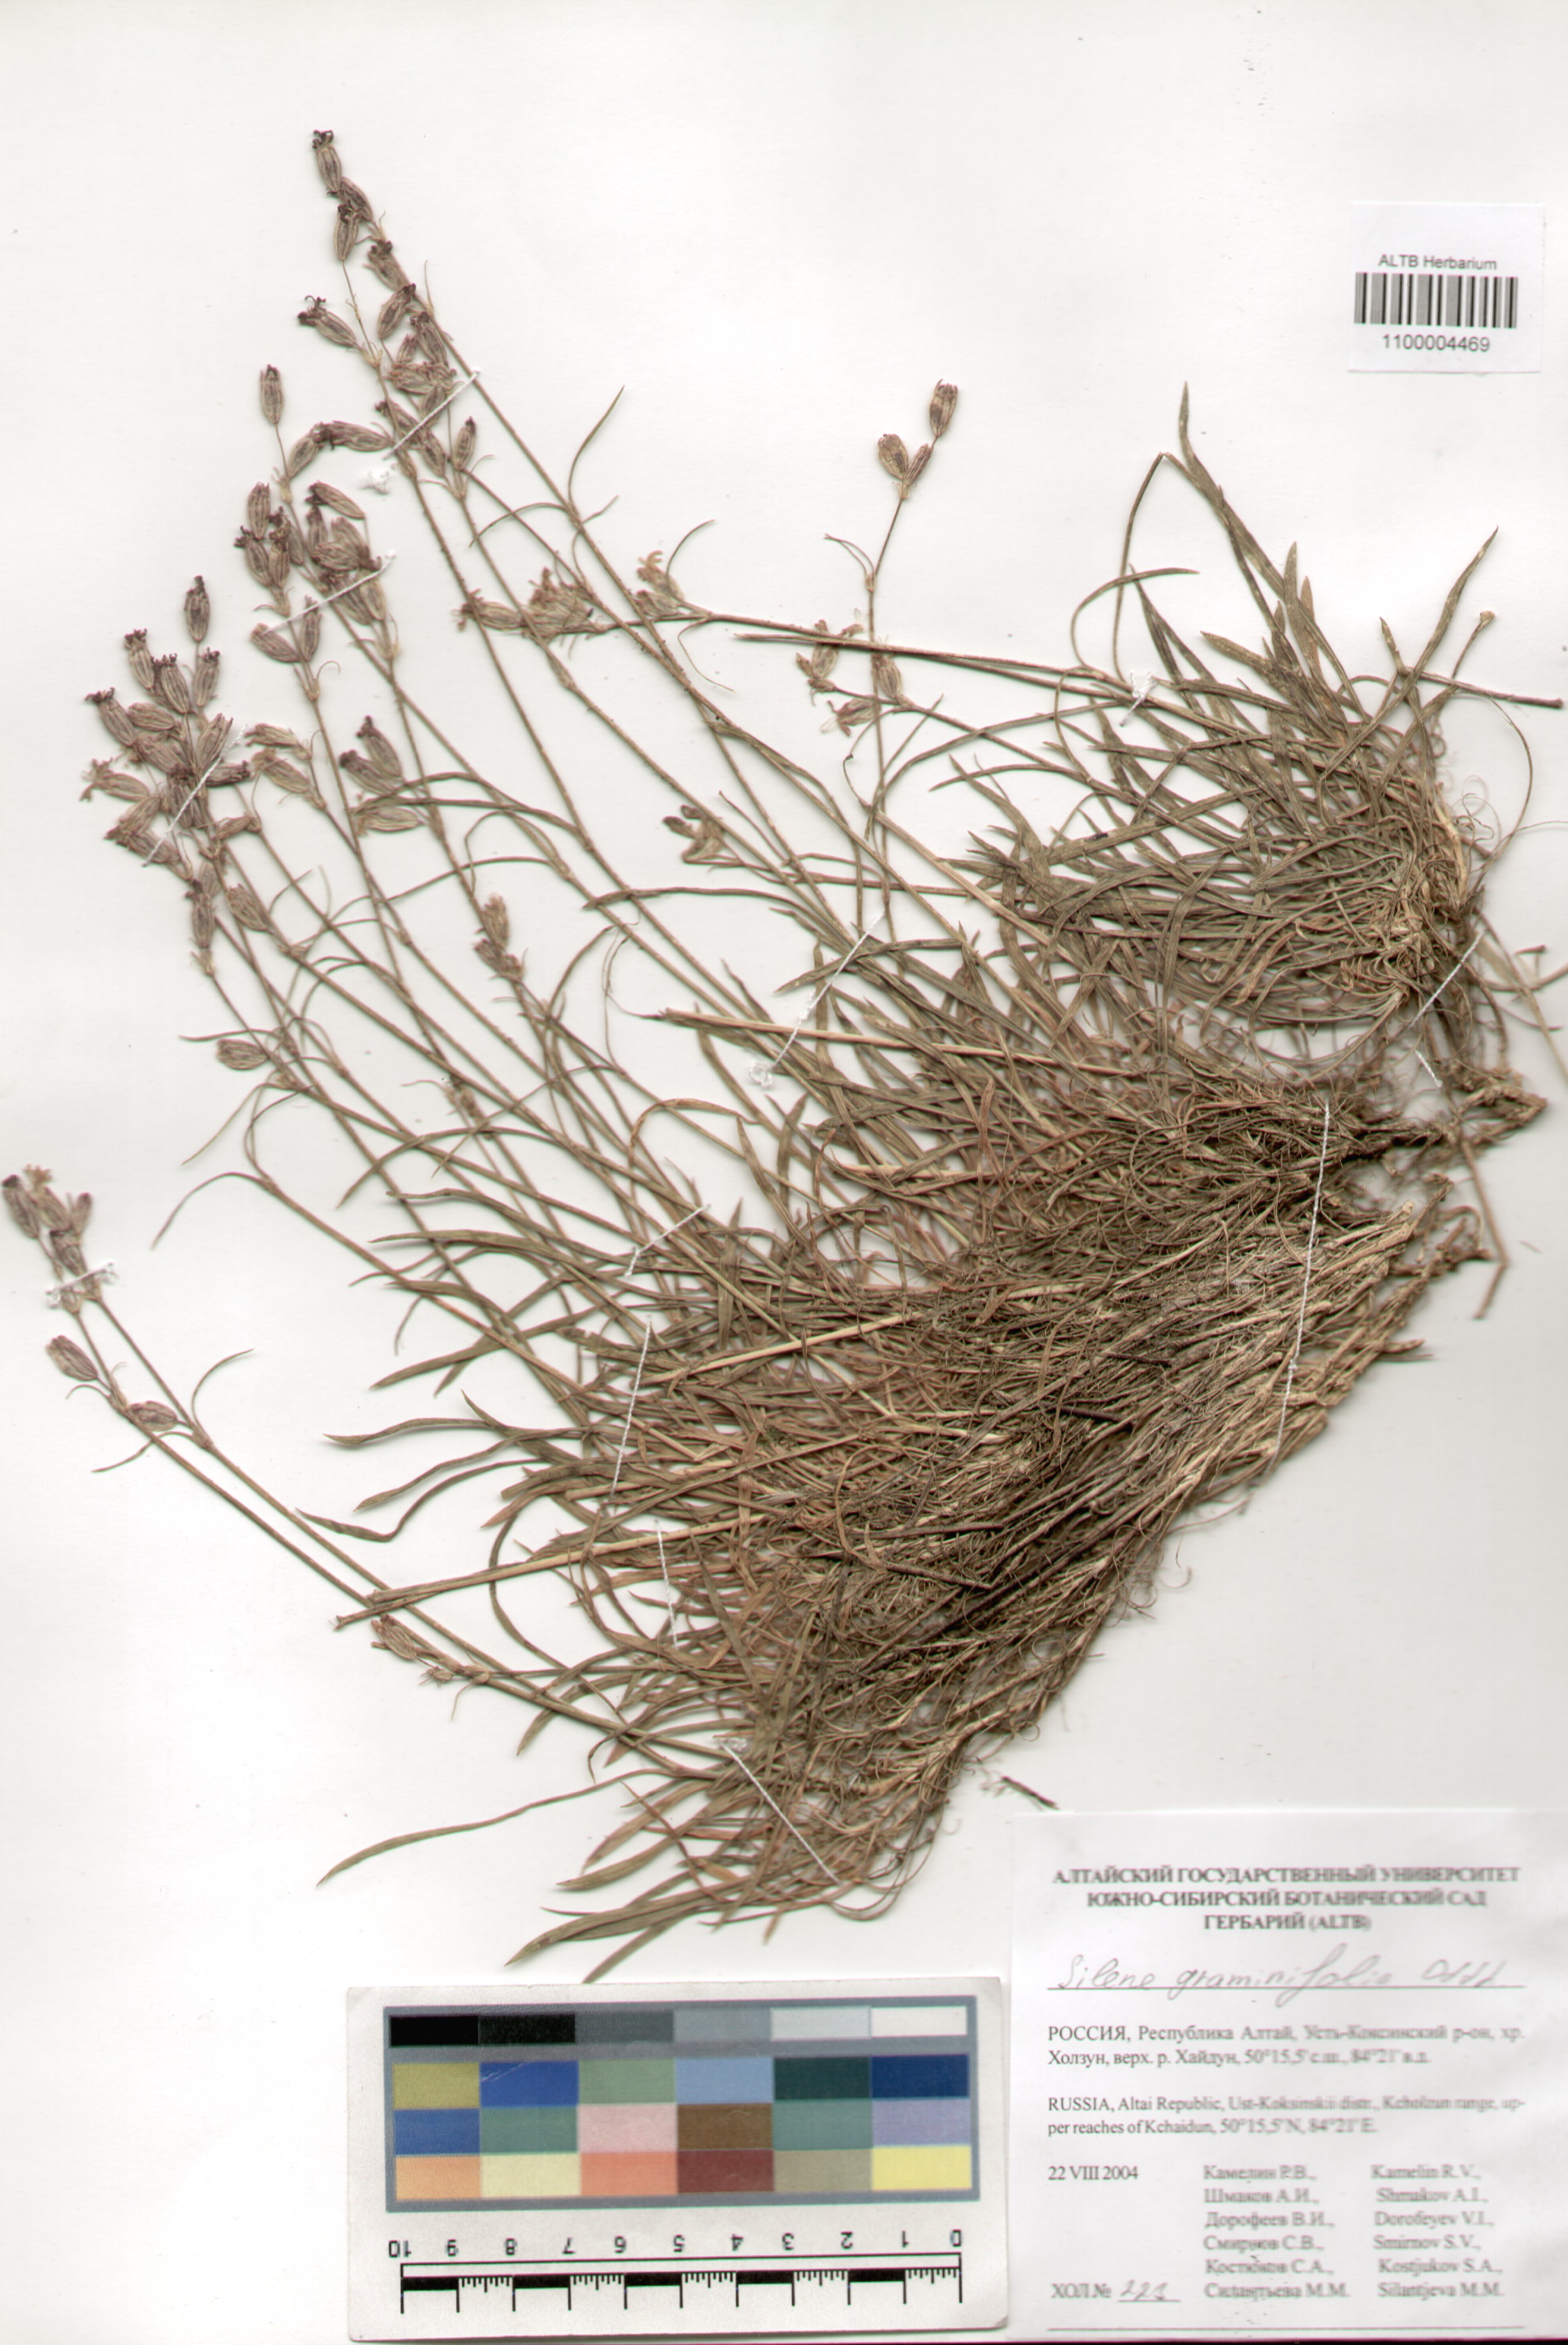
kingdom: Plantae
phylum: Tracheophyta
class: Magnoliopsida
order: Caryophyllales
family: Caryophyllaceae
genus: Silene
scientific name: Silene graminifolia
